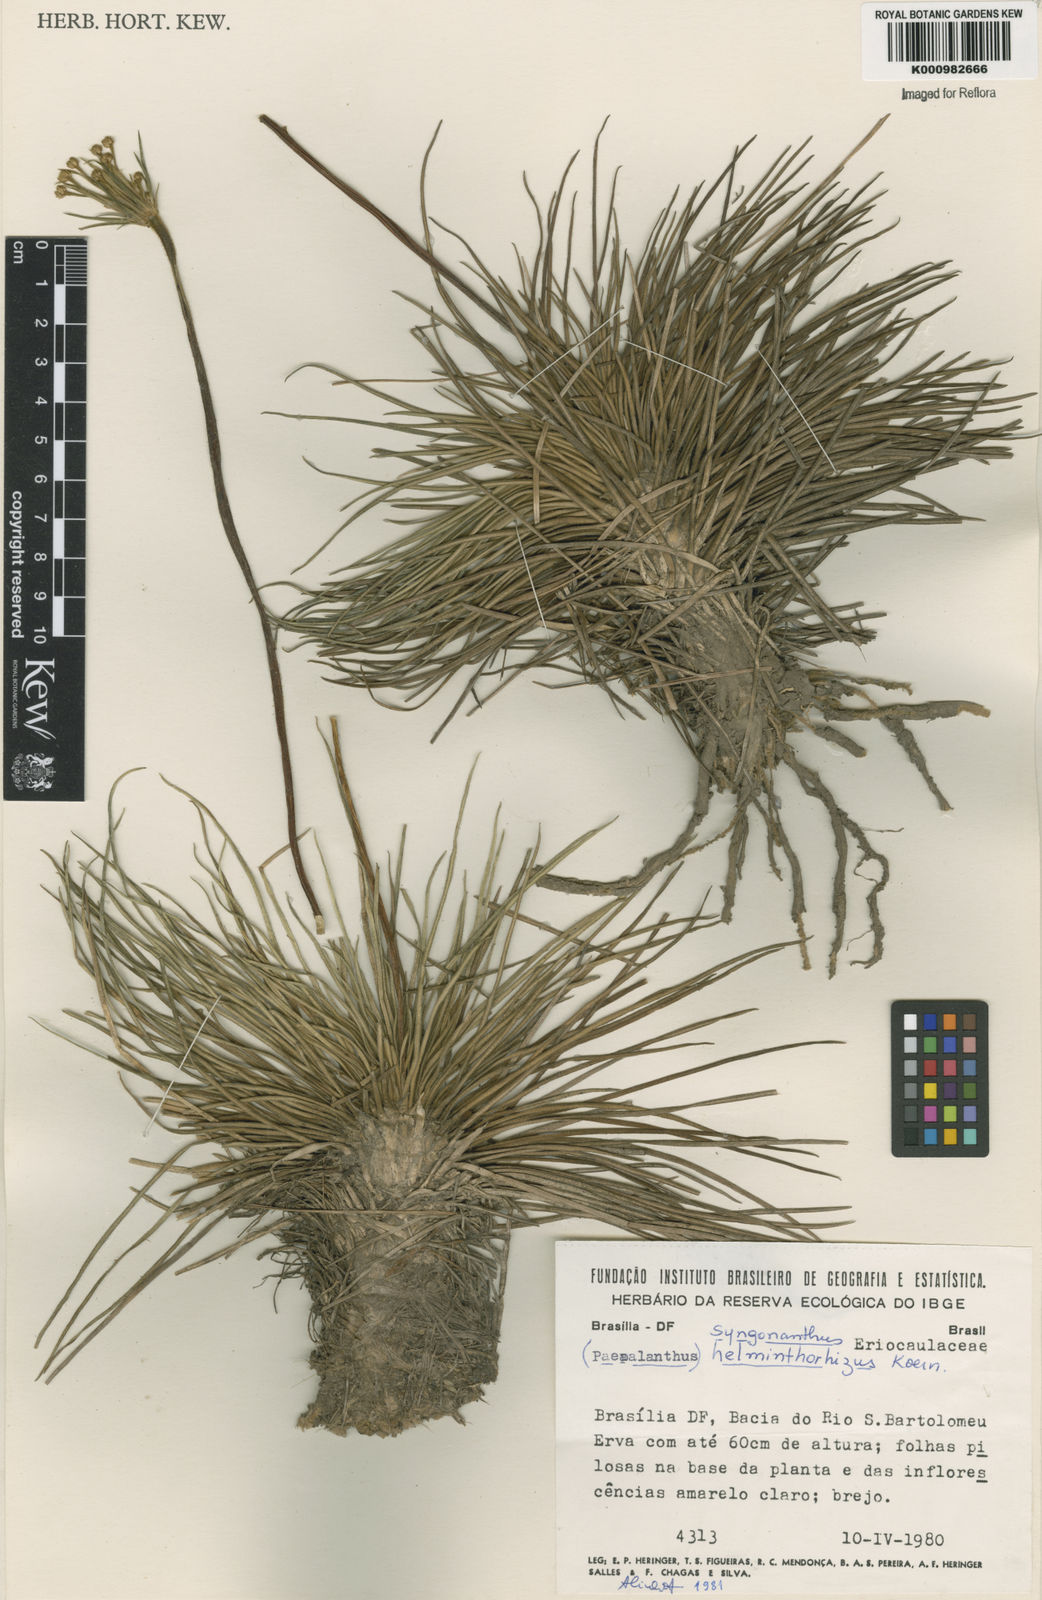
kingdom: Plantae
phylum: Tracheophyta
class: Liliopsida
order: Poales
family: Eriocaulaceae
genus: Syngonanthus
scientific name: Syngonanthus
